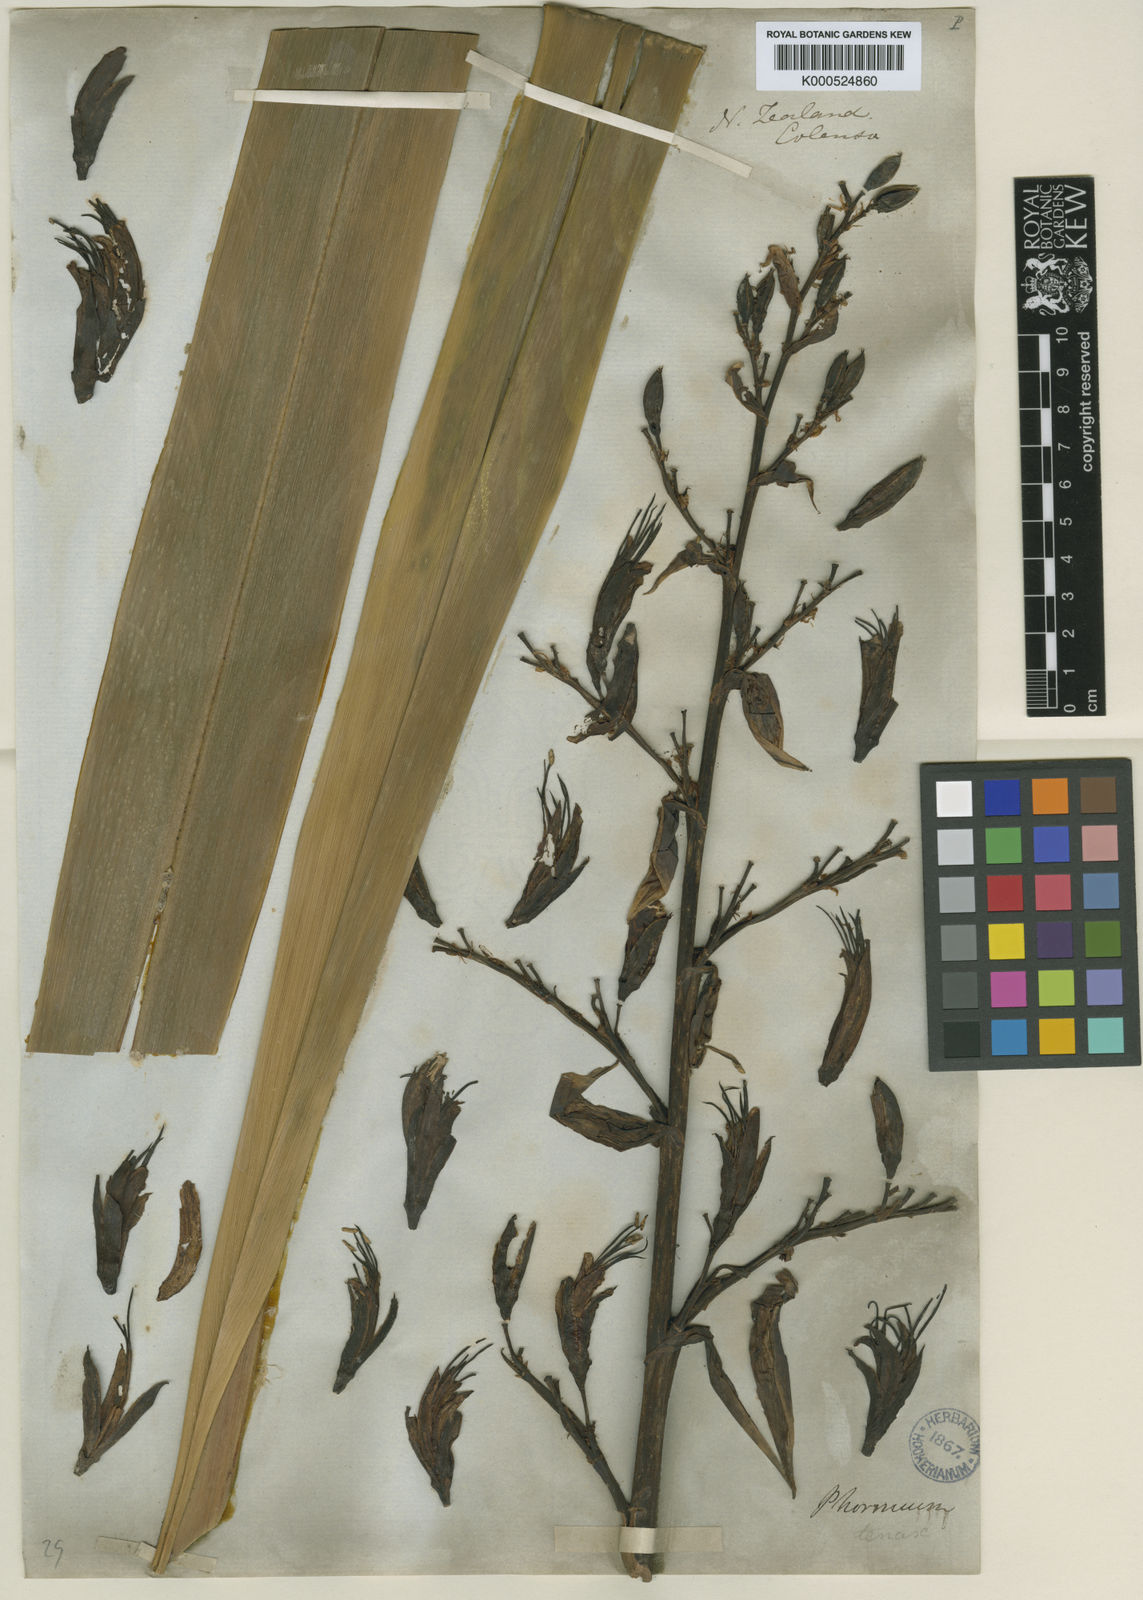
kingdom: Plantae
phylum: Tracheophyta
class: Liliopsida
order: Asparagales
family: Asphodelaceae
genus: Phormium
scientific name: Phormium tenax
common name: New zealand flax
